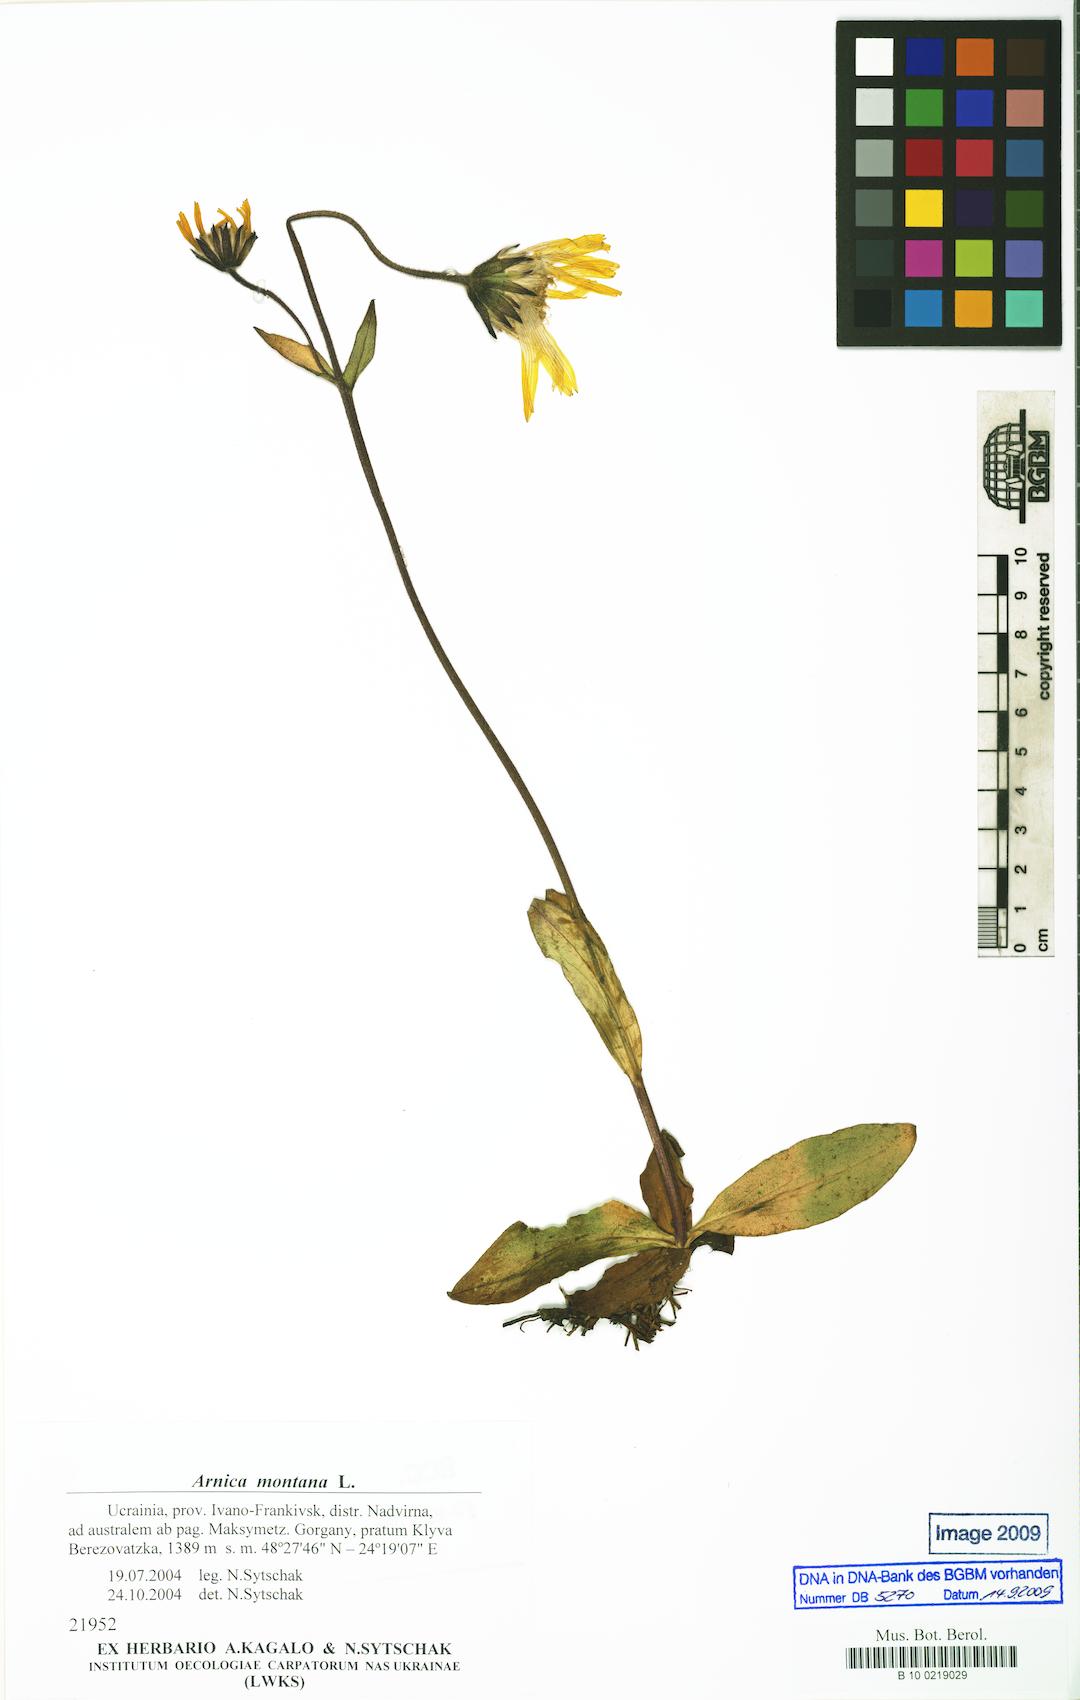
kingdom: Plantae
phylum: Tracheophyta
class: Magnoliopsida
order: Asterales
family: Asteraceae
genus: Arnica
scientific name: Arnica montana
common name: Leopard's bane
